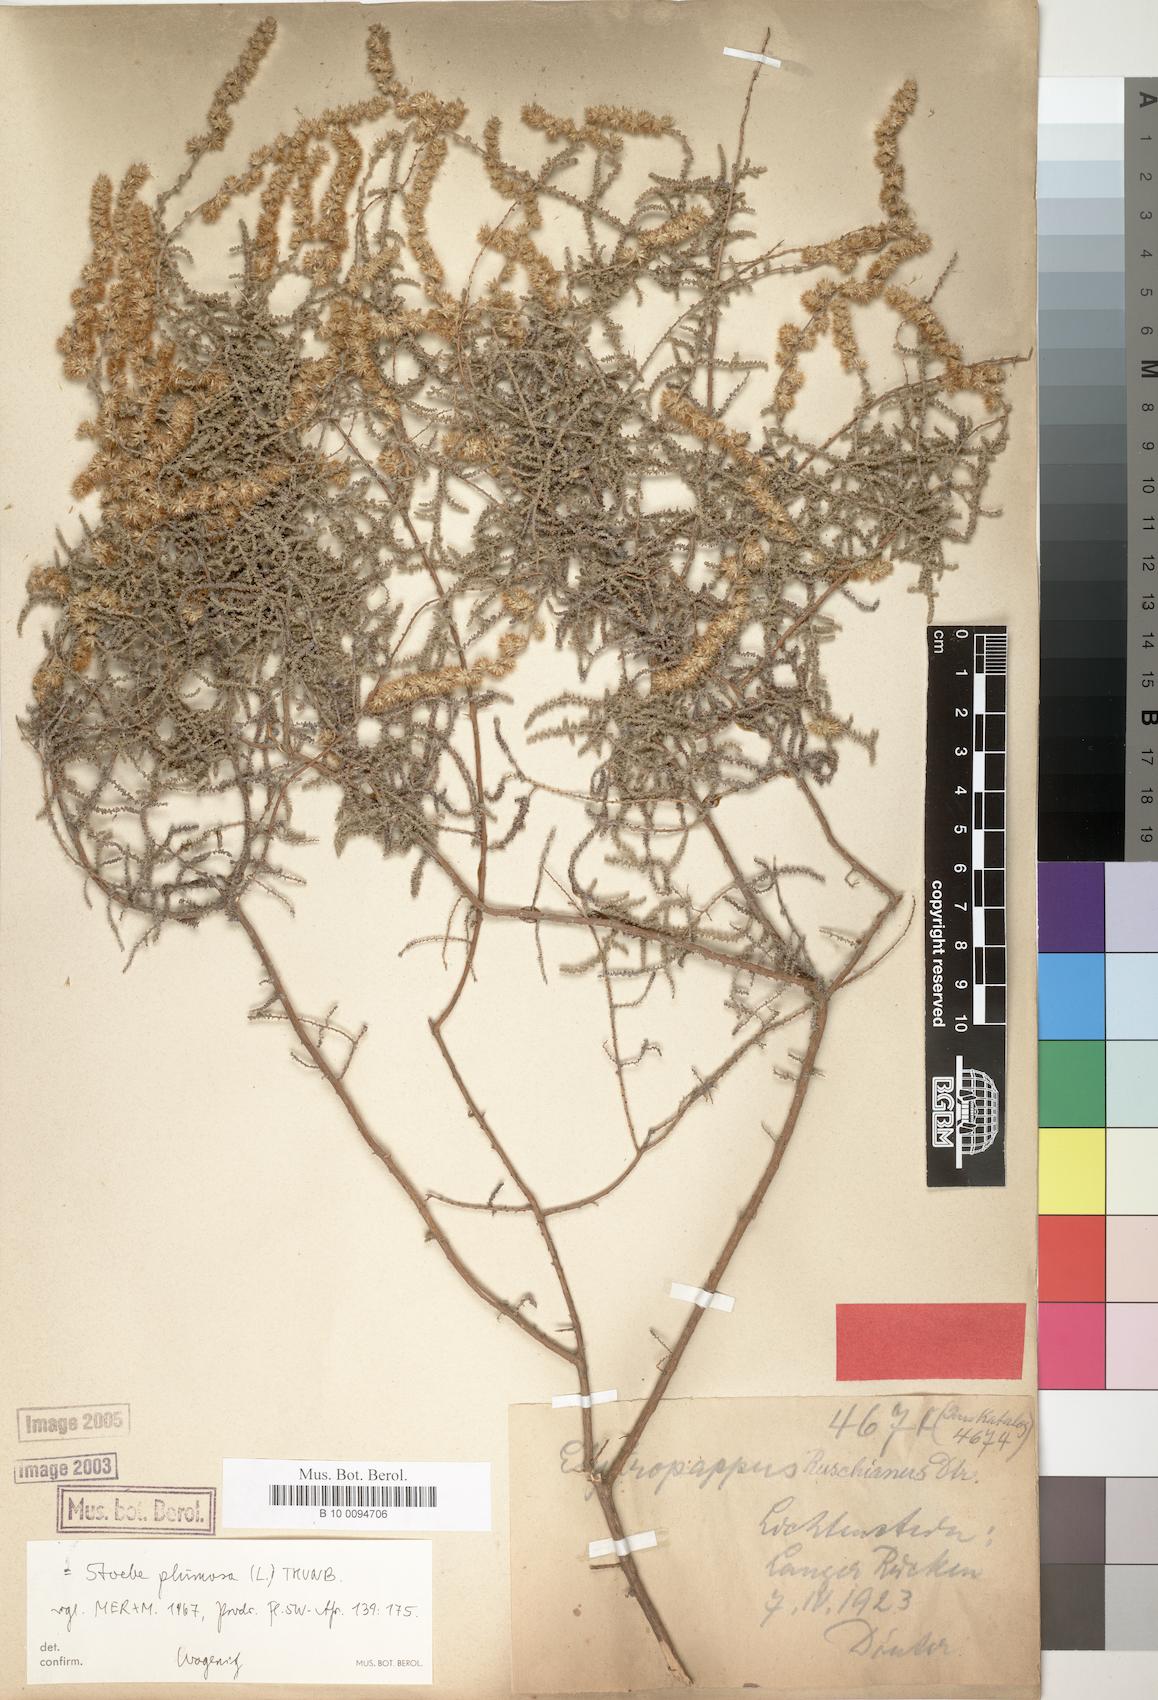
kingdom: Plantae
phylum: Tracheophyta
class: Magnoliopsida
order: Asterales
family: Asteraceae
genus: Seriphium
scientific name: Seriphium plumosum
